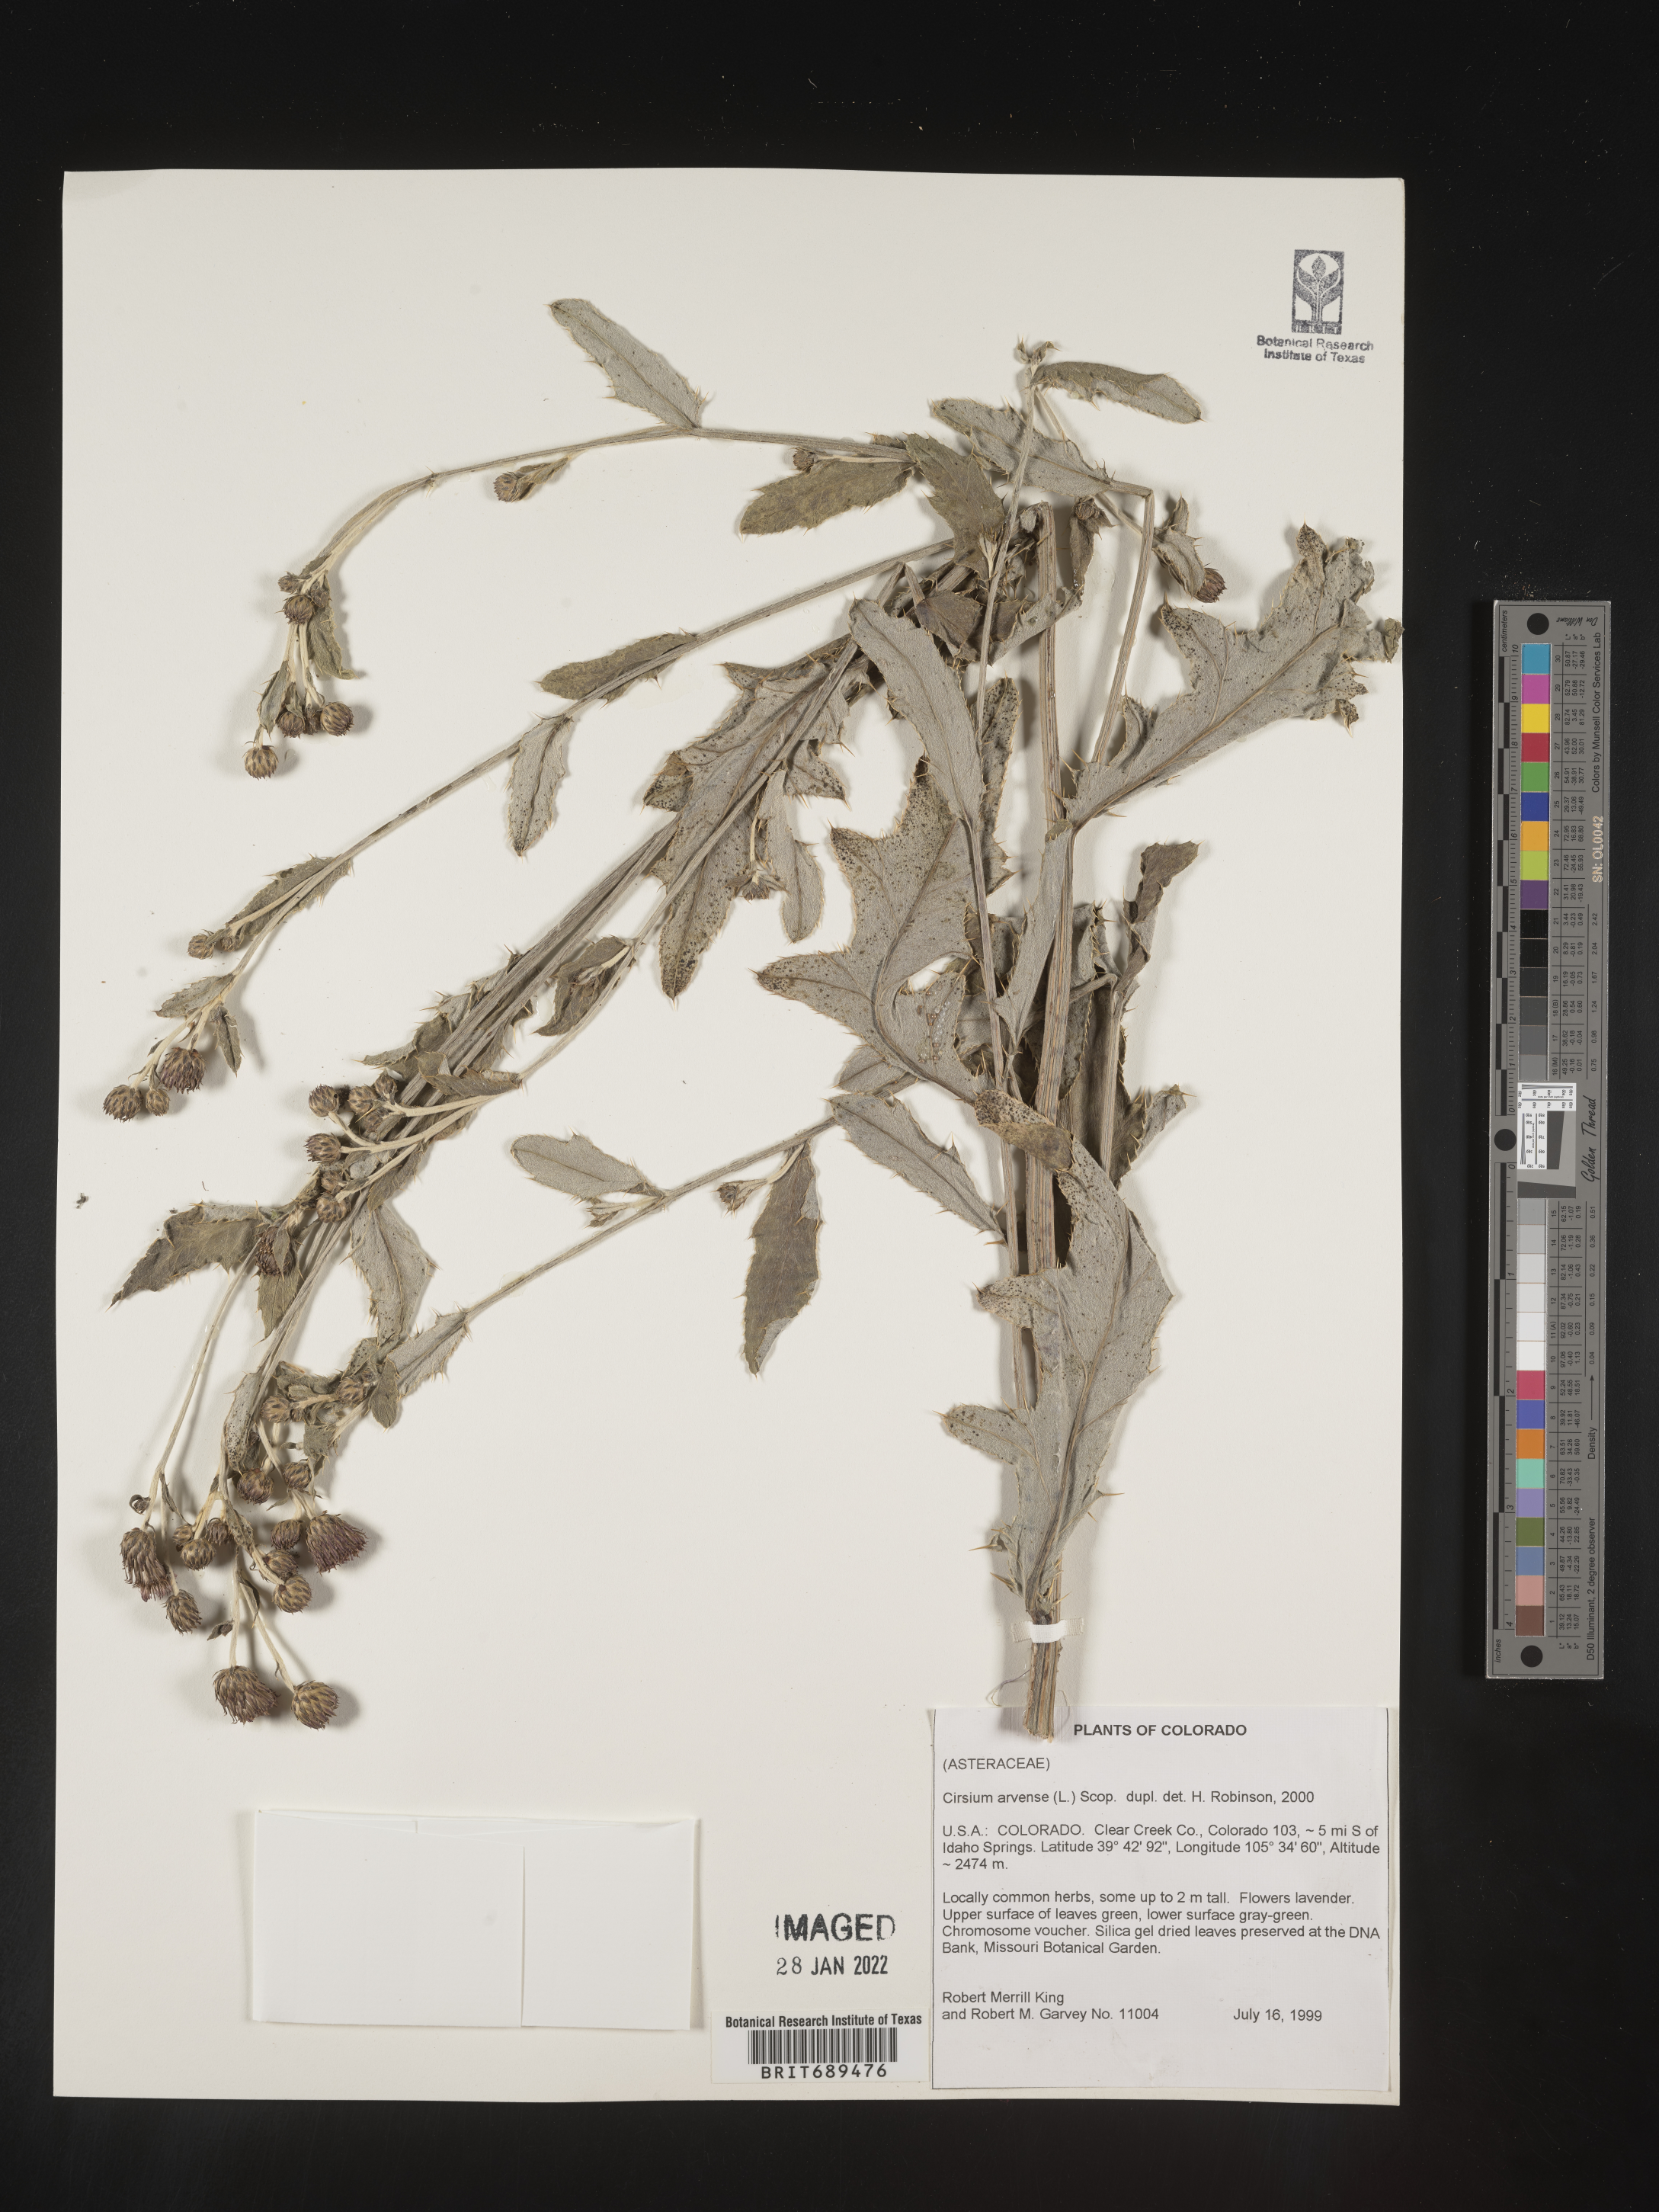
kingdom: Plantae
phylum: Tracheophyta
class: Magnoliopsida
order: Asterales
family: Asteraceae
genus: Cirsium
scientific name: Cirsium arvense
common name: Creeping thistle
